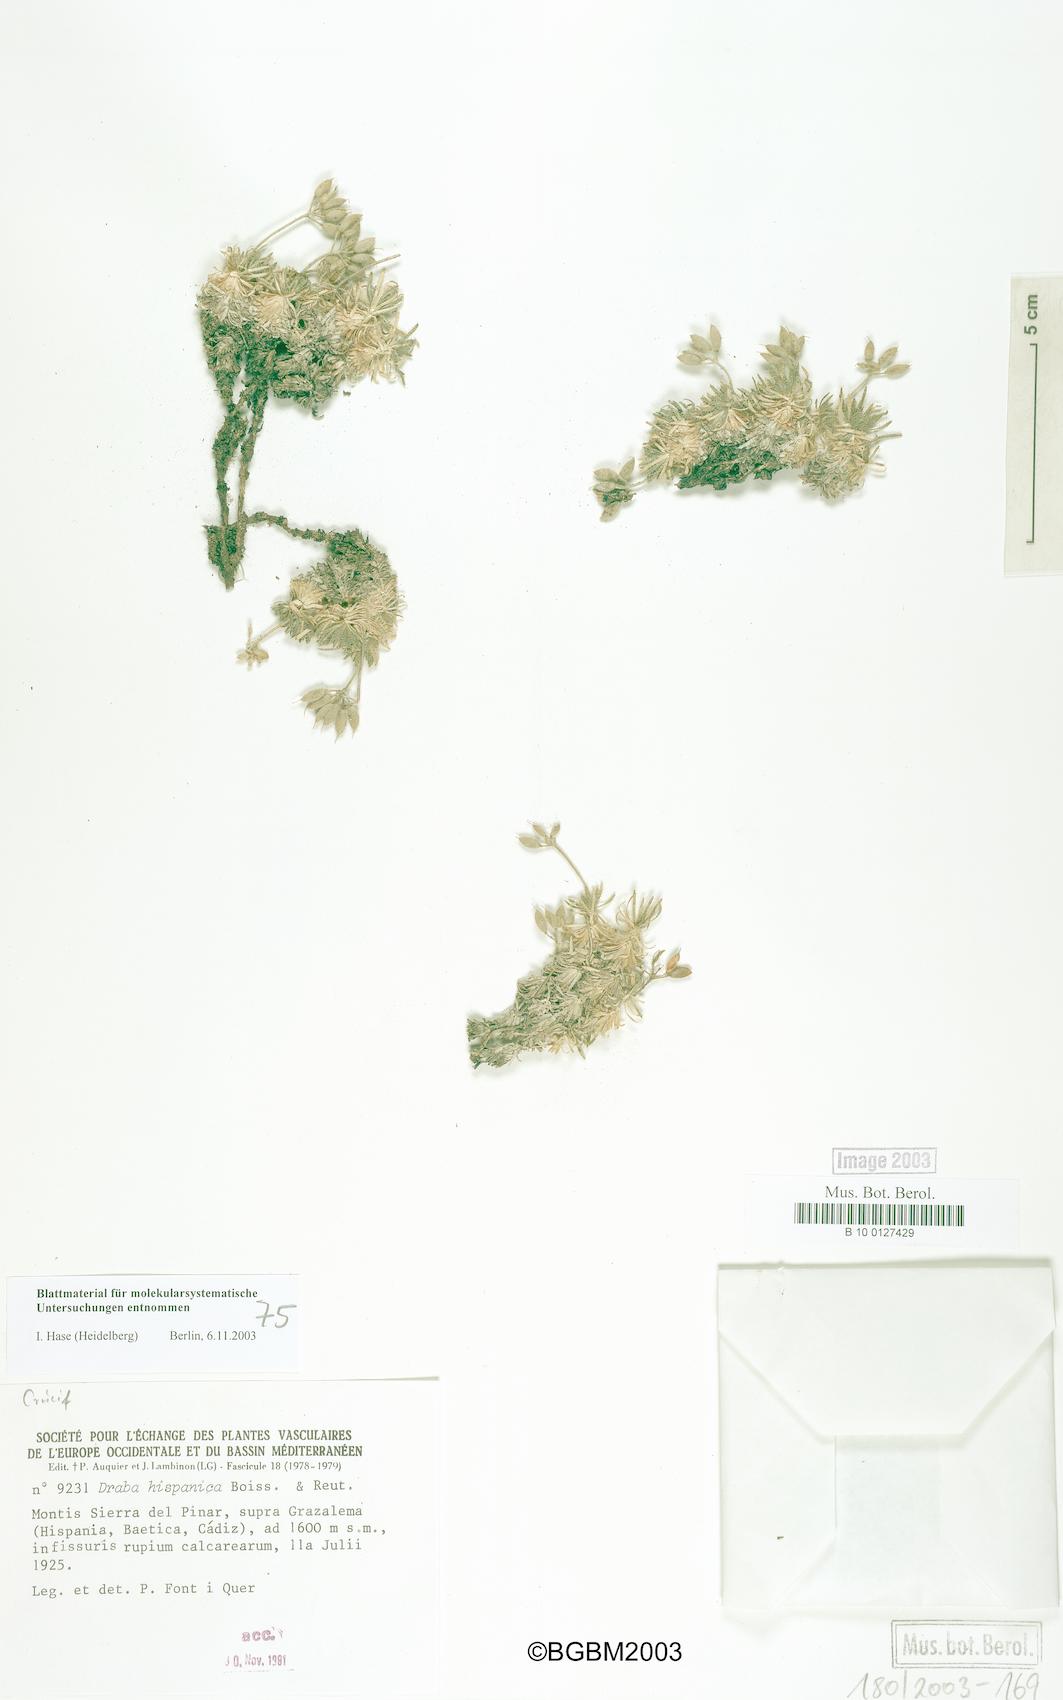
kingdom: Plantae
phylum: Tracheophyta
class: Magnoliopsida
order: Brassicales
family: Brassicaceae
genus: Draba
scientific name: Draba hispanica
